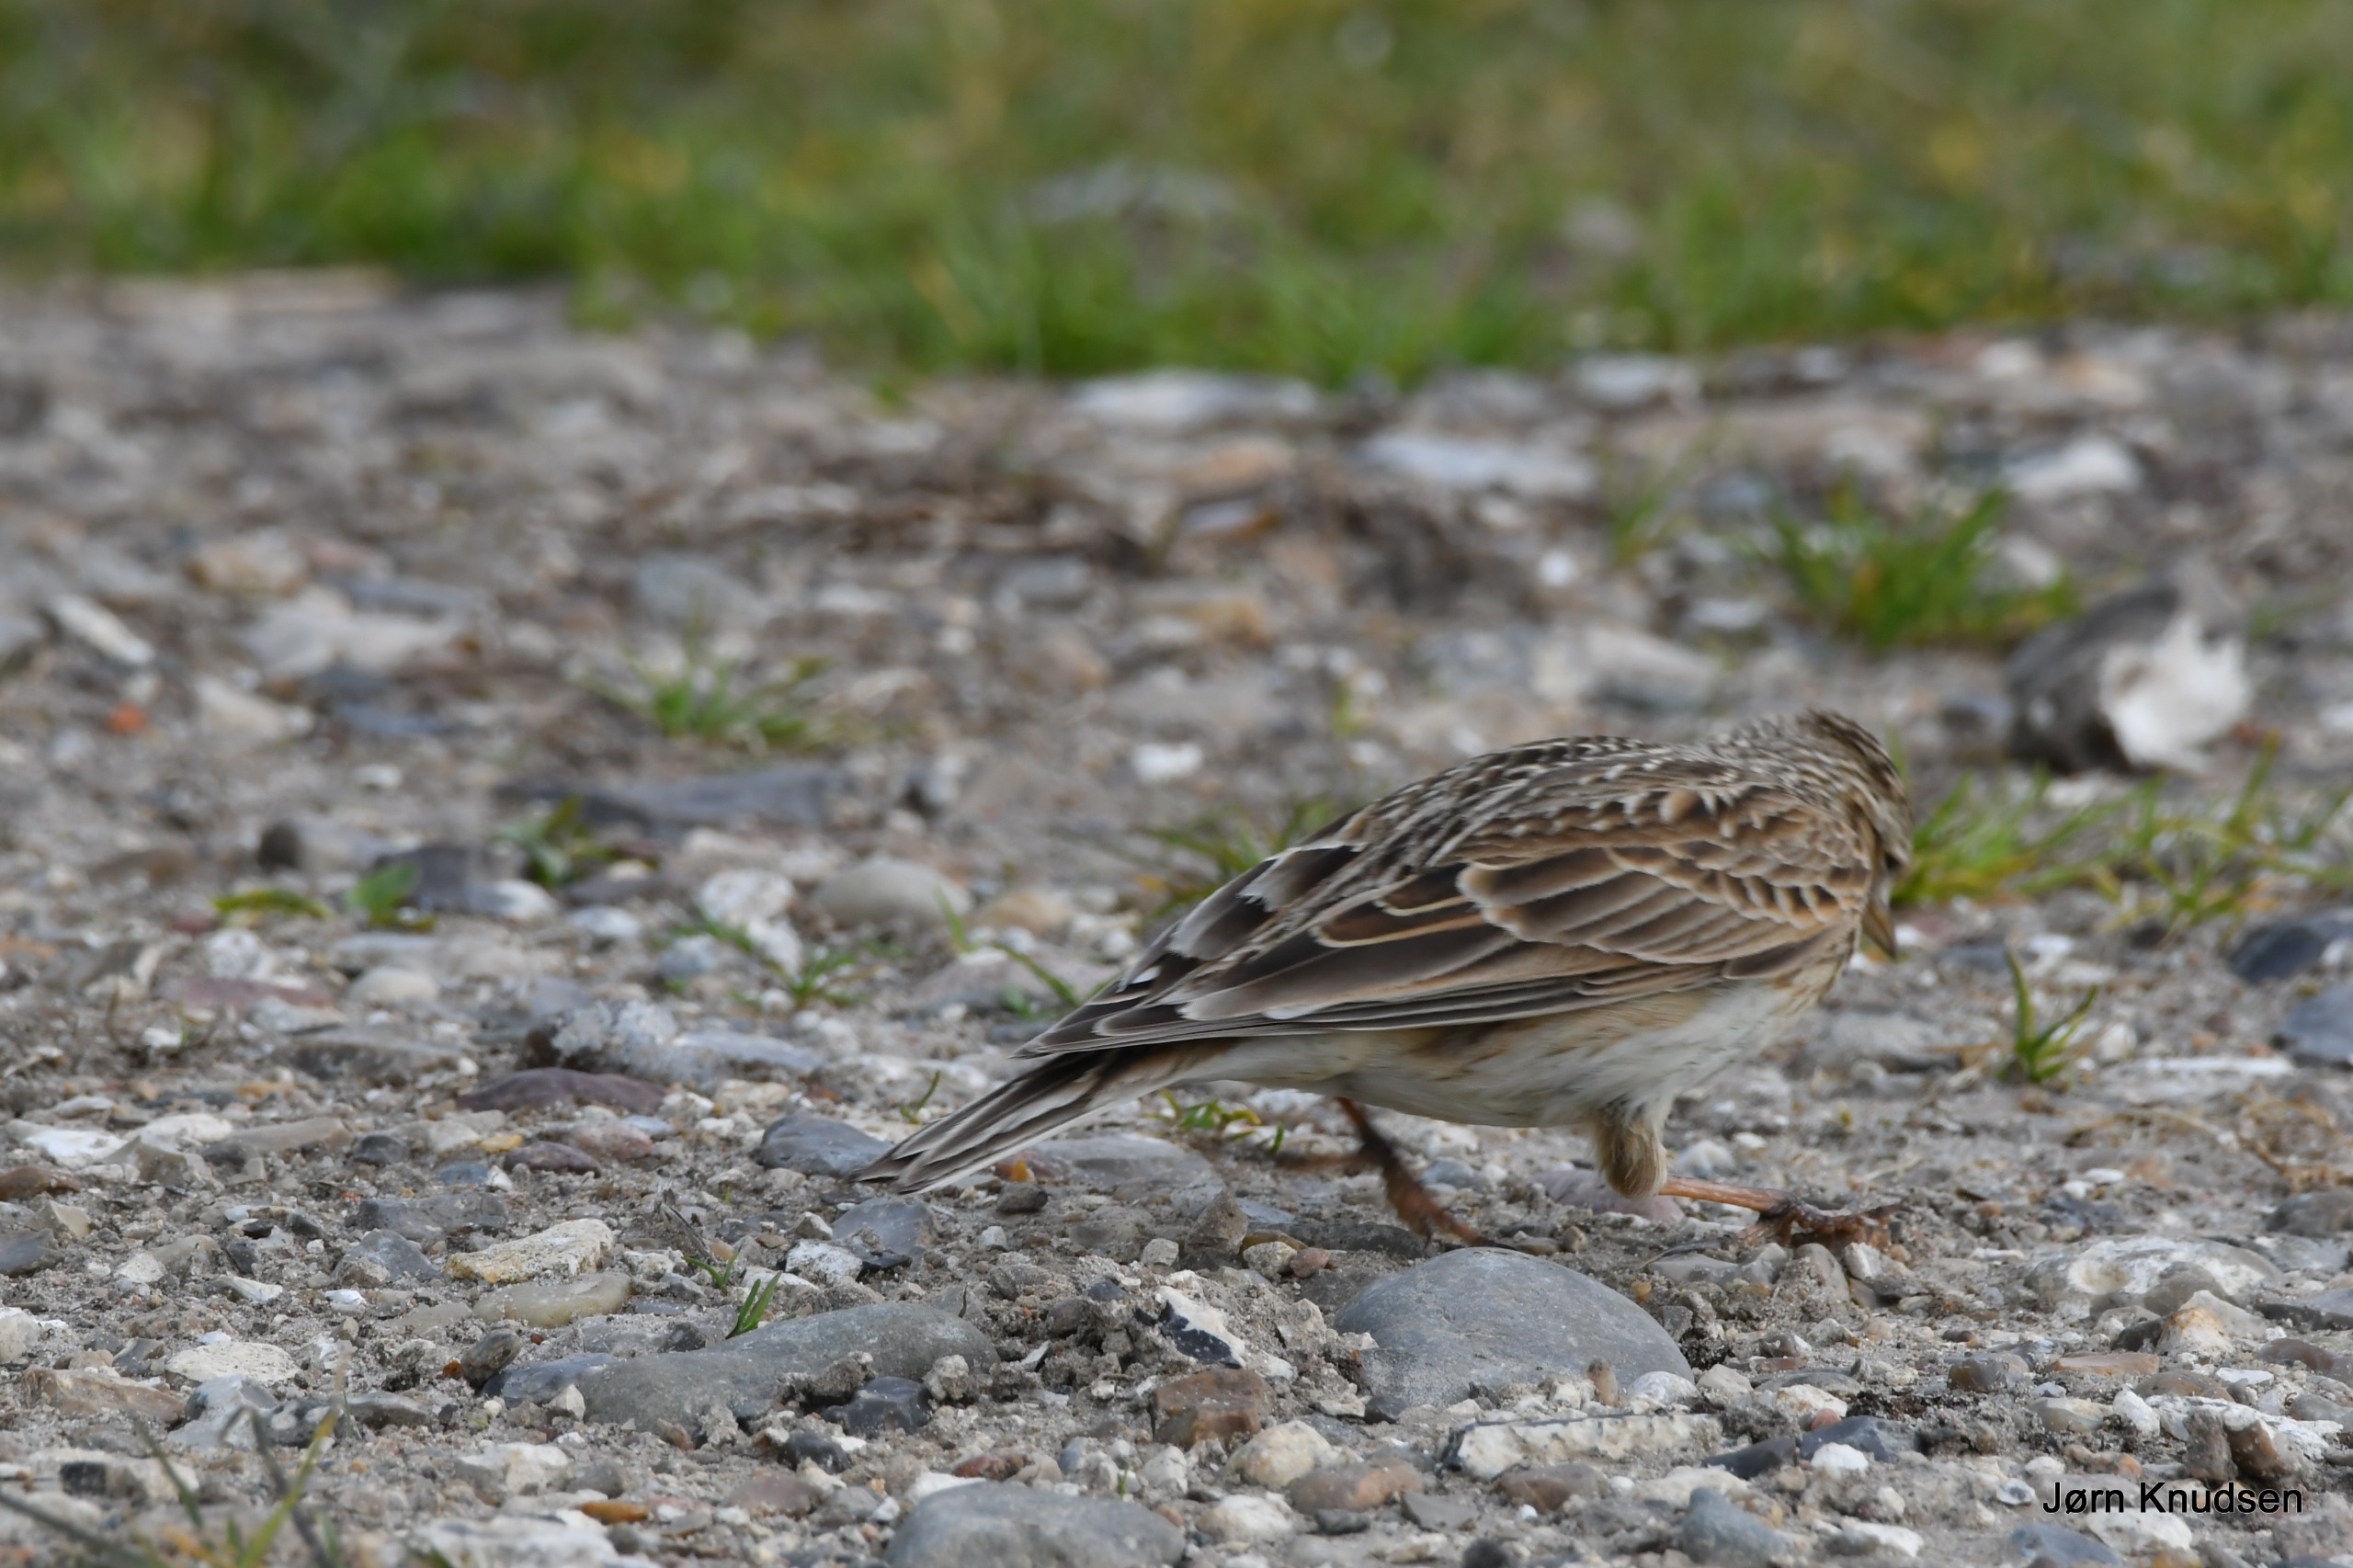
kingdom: Animalia
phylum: Chordata
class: Aves
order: Passeriformes
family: Alaudidae
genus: Alauda
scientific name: Alauda arvensis
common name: Sanglærke
